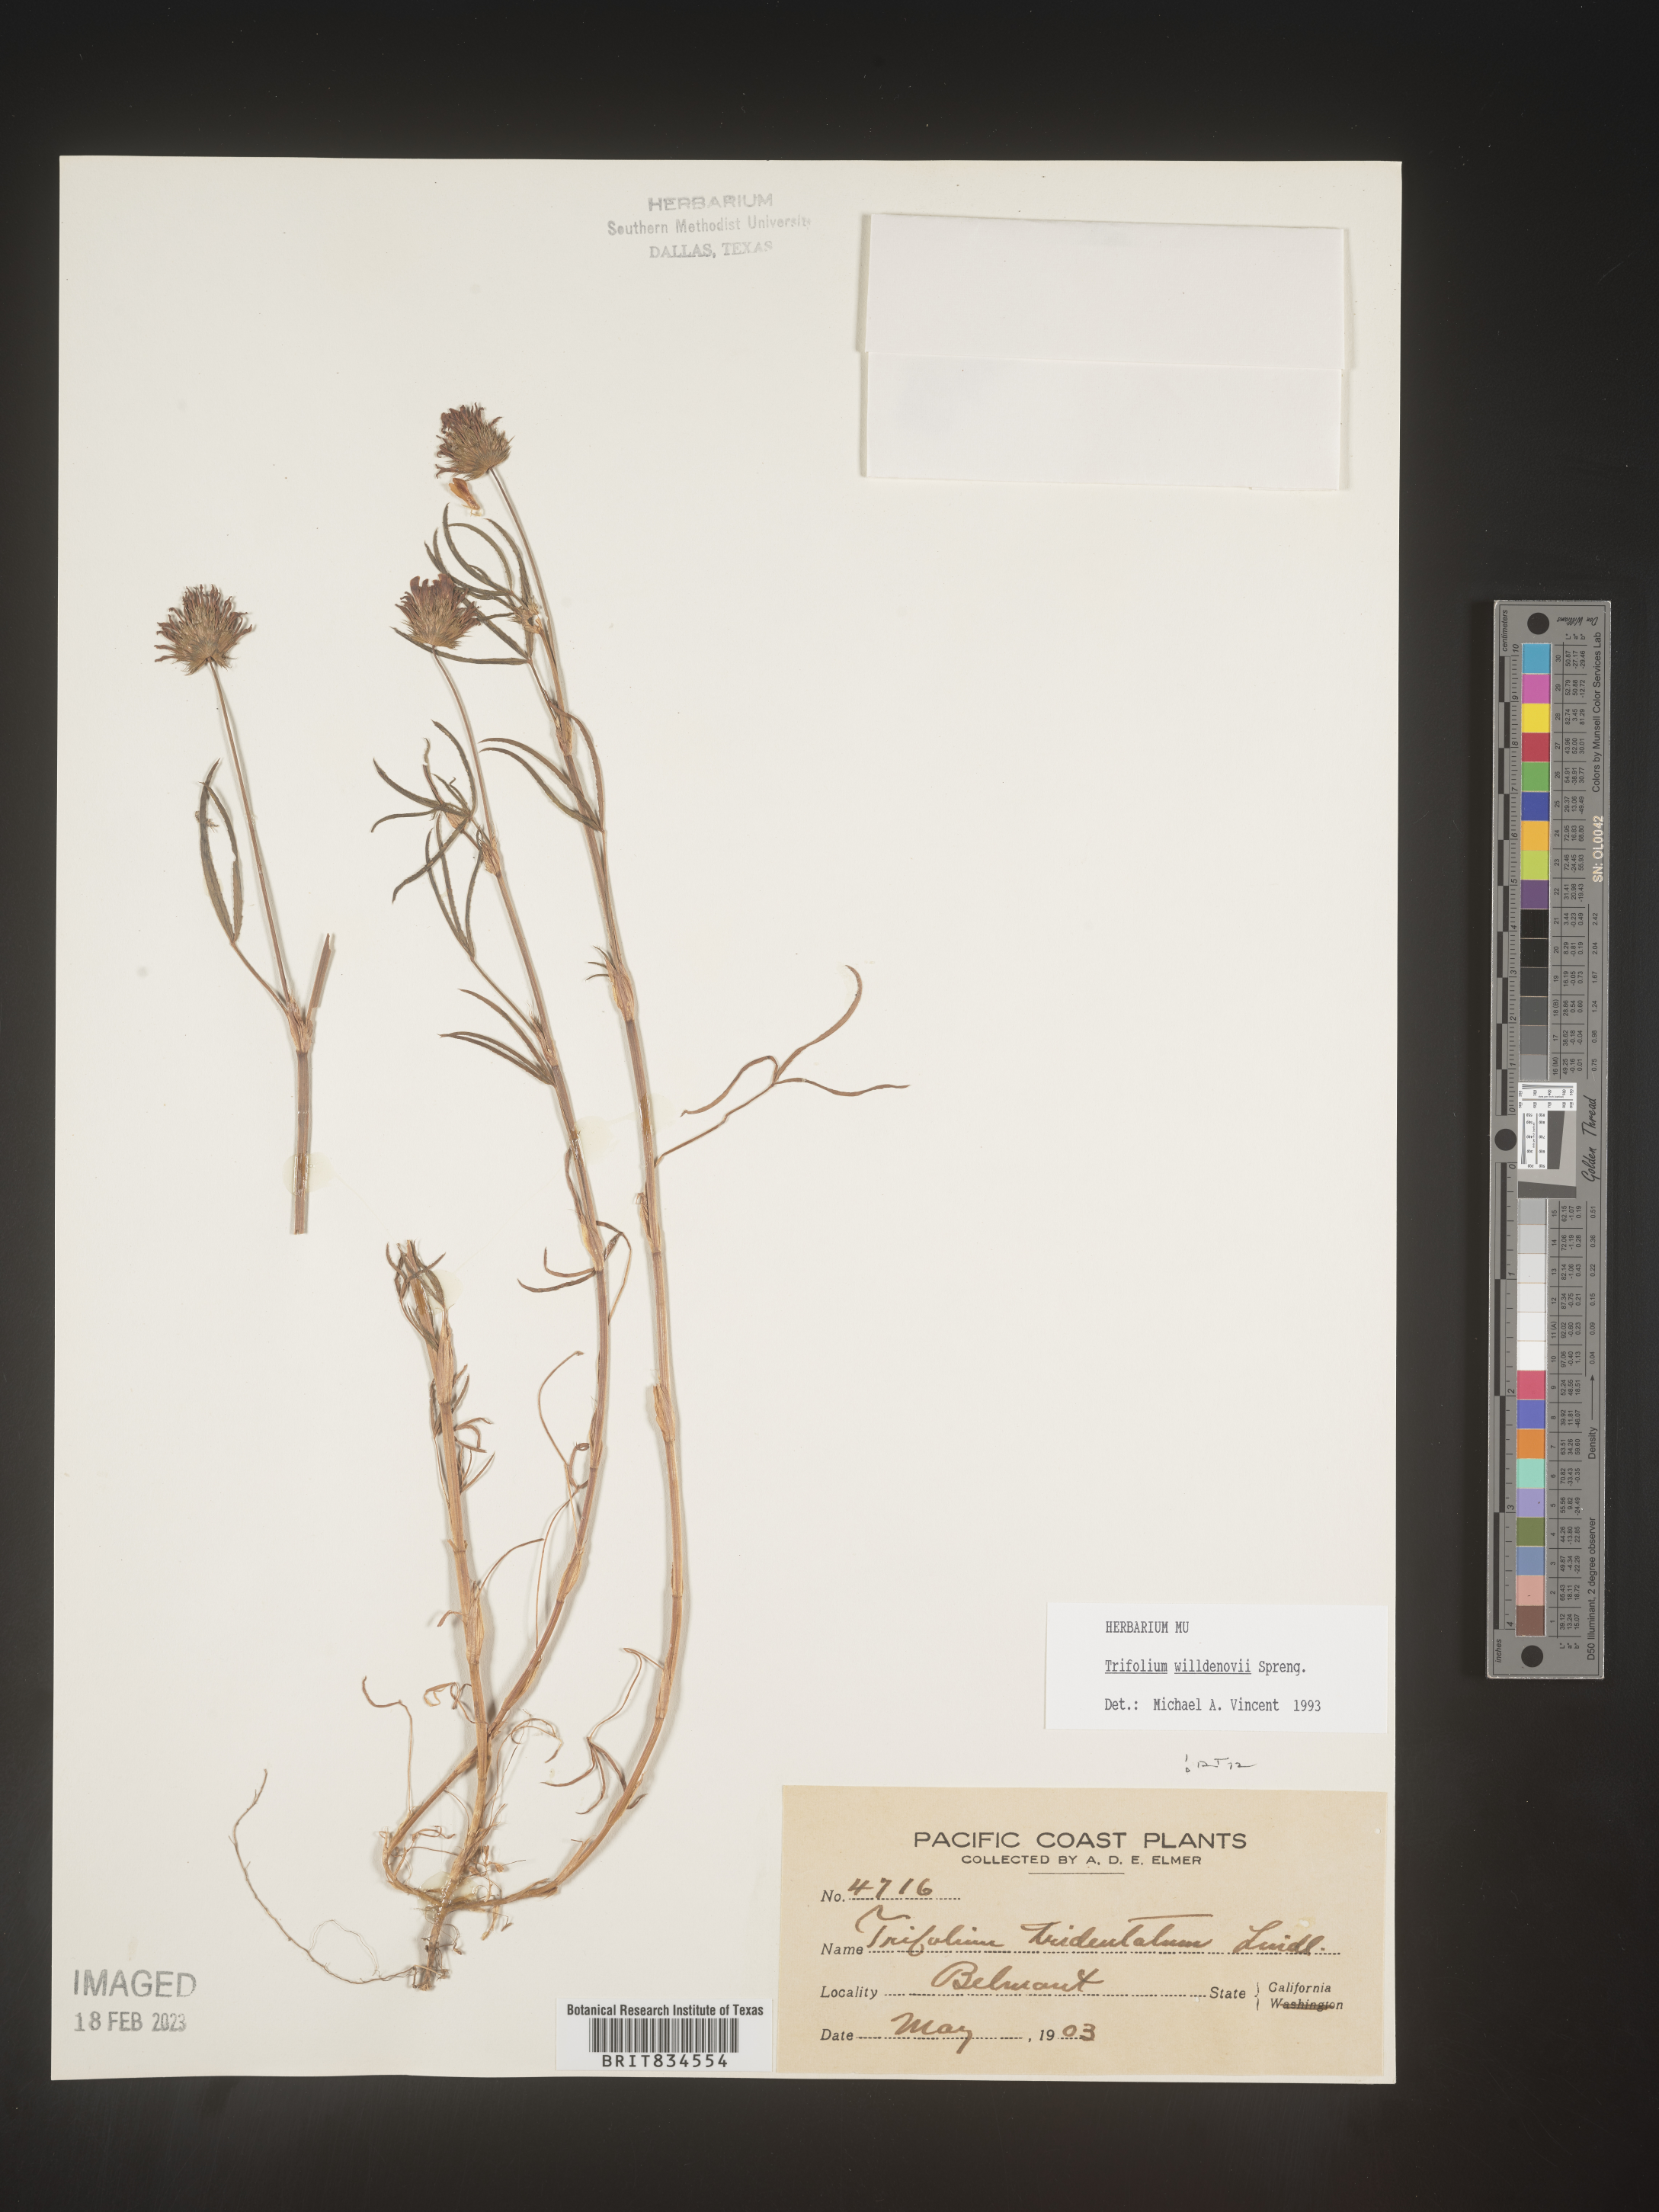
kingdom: Plantae
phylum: Tracheophyta
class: Magnoliopsida
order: Fabales
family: Fabaceae
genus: Trifolium
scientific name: Trifolium
